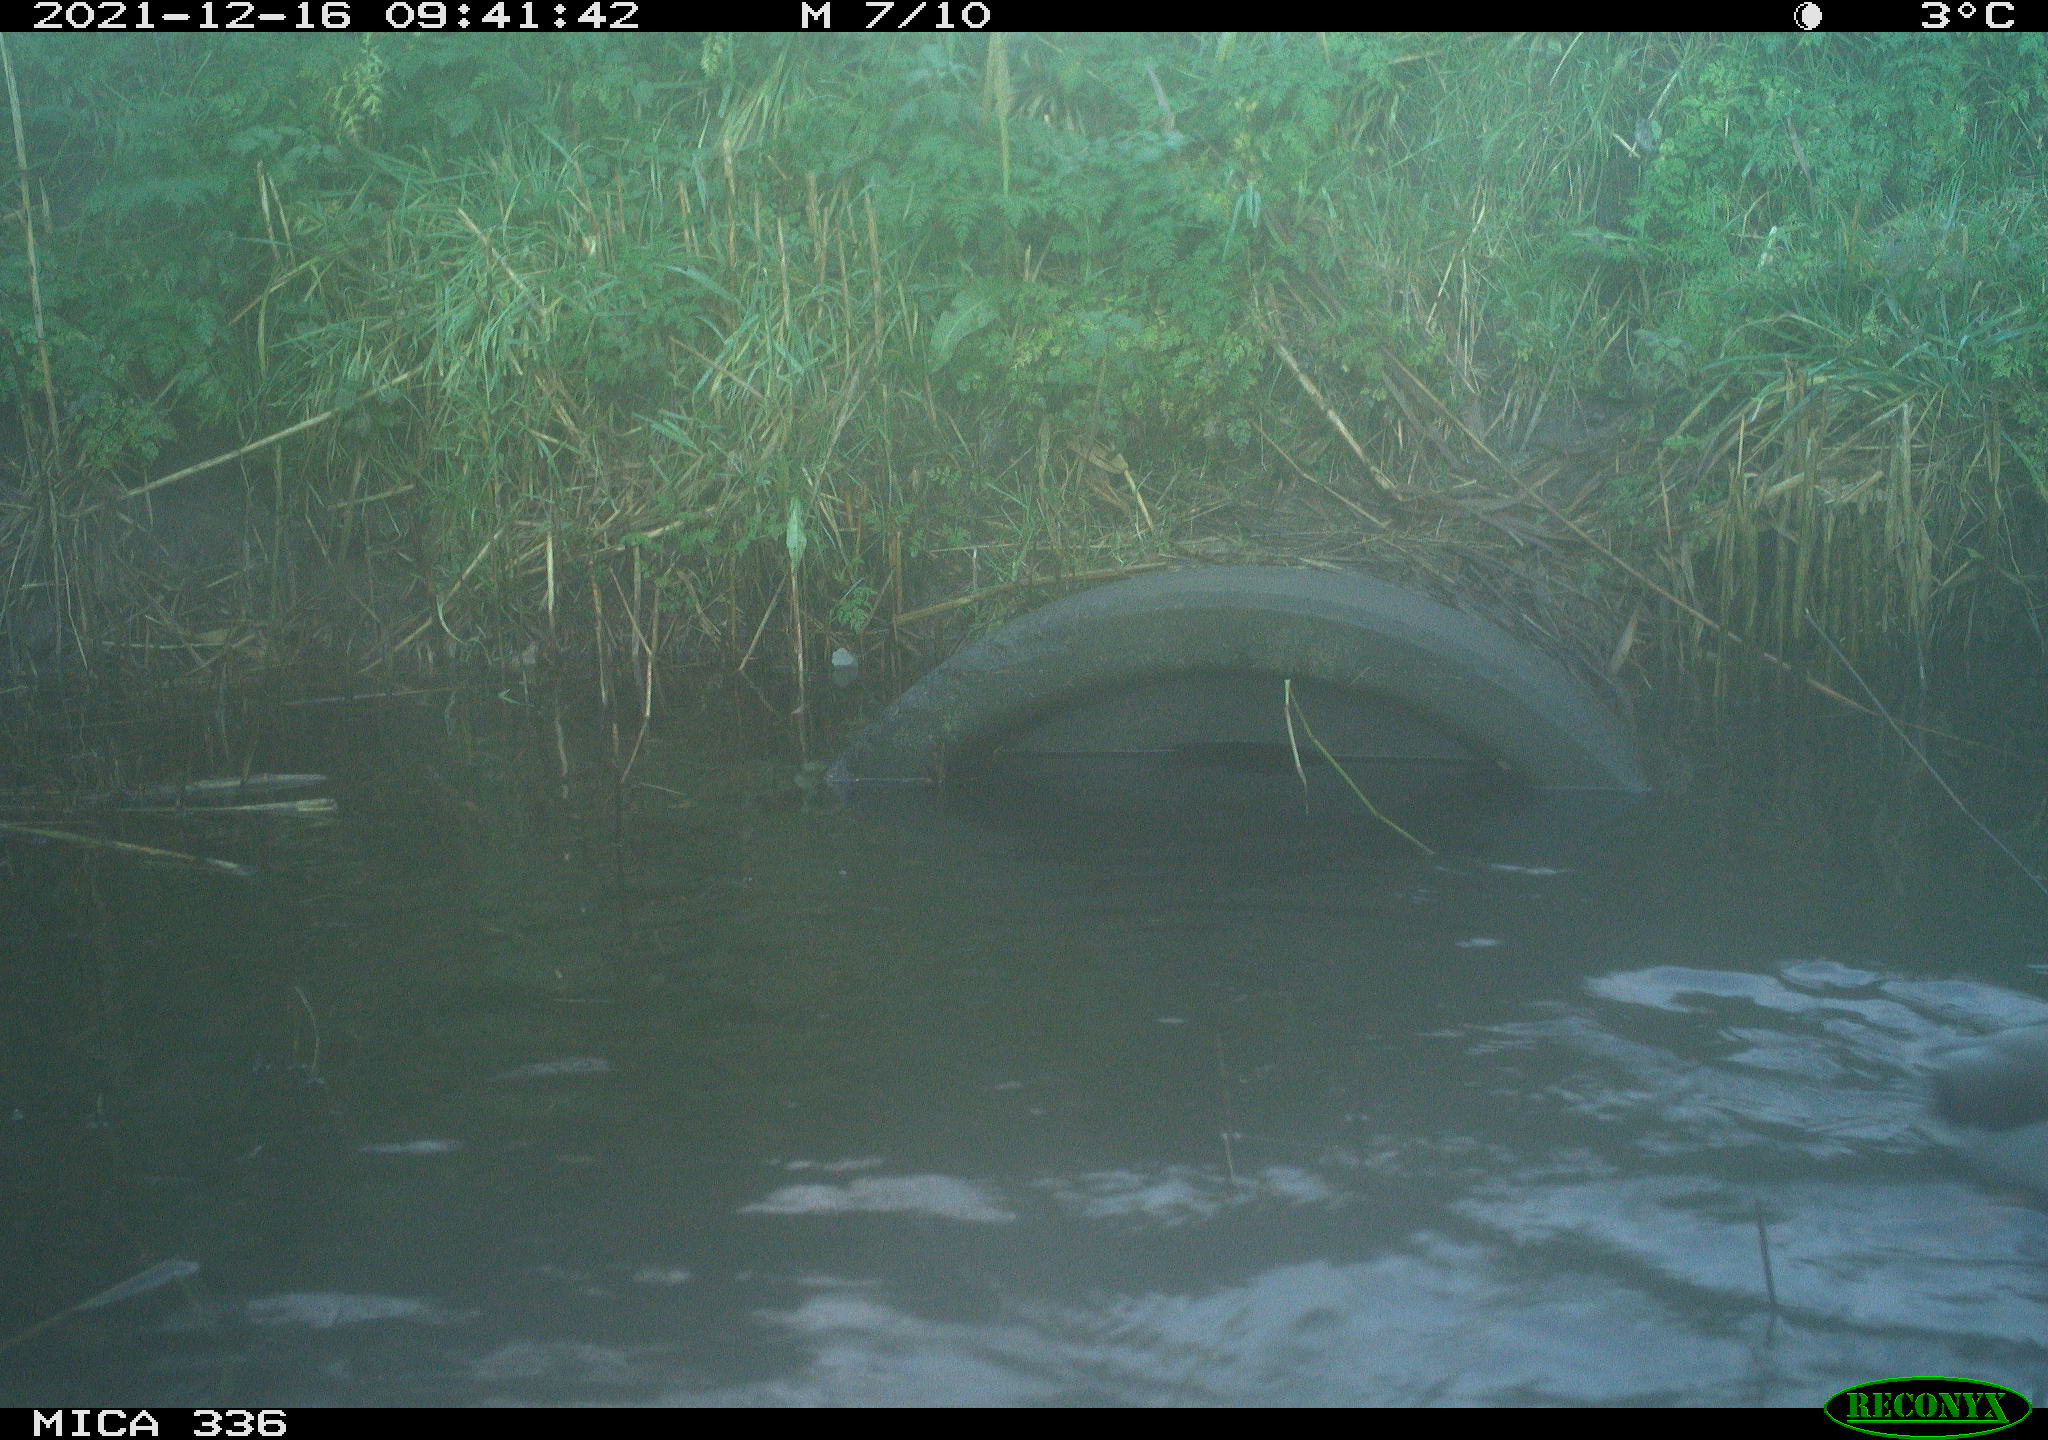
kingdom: Animalia
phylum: Chordata
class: Aves
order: Anseriformes
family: Anatidae
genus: Anas
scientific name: Anas platyrhynchos
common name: Mallard
